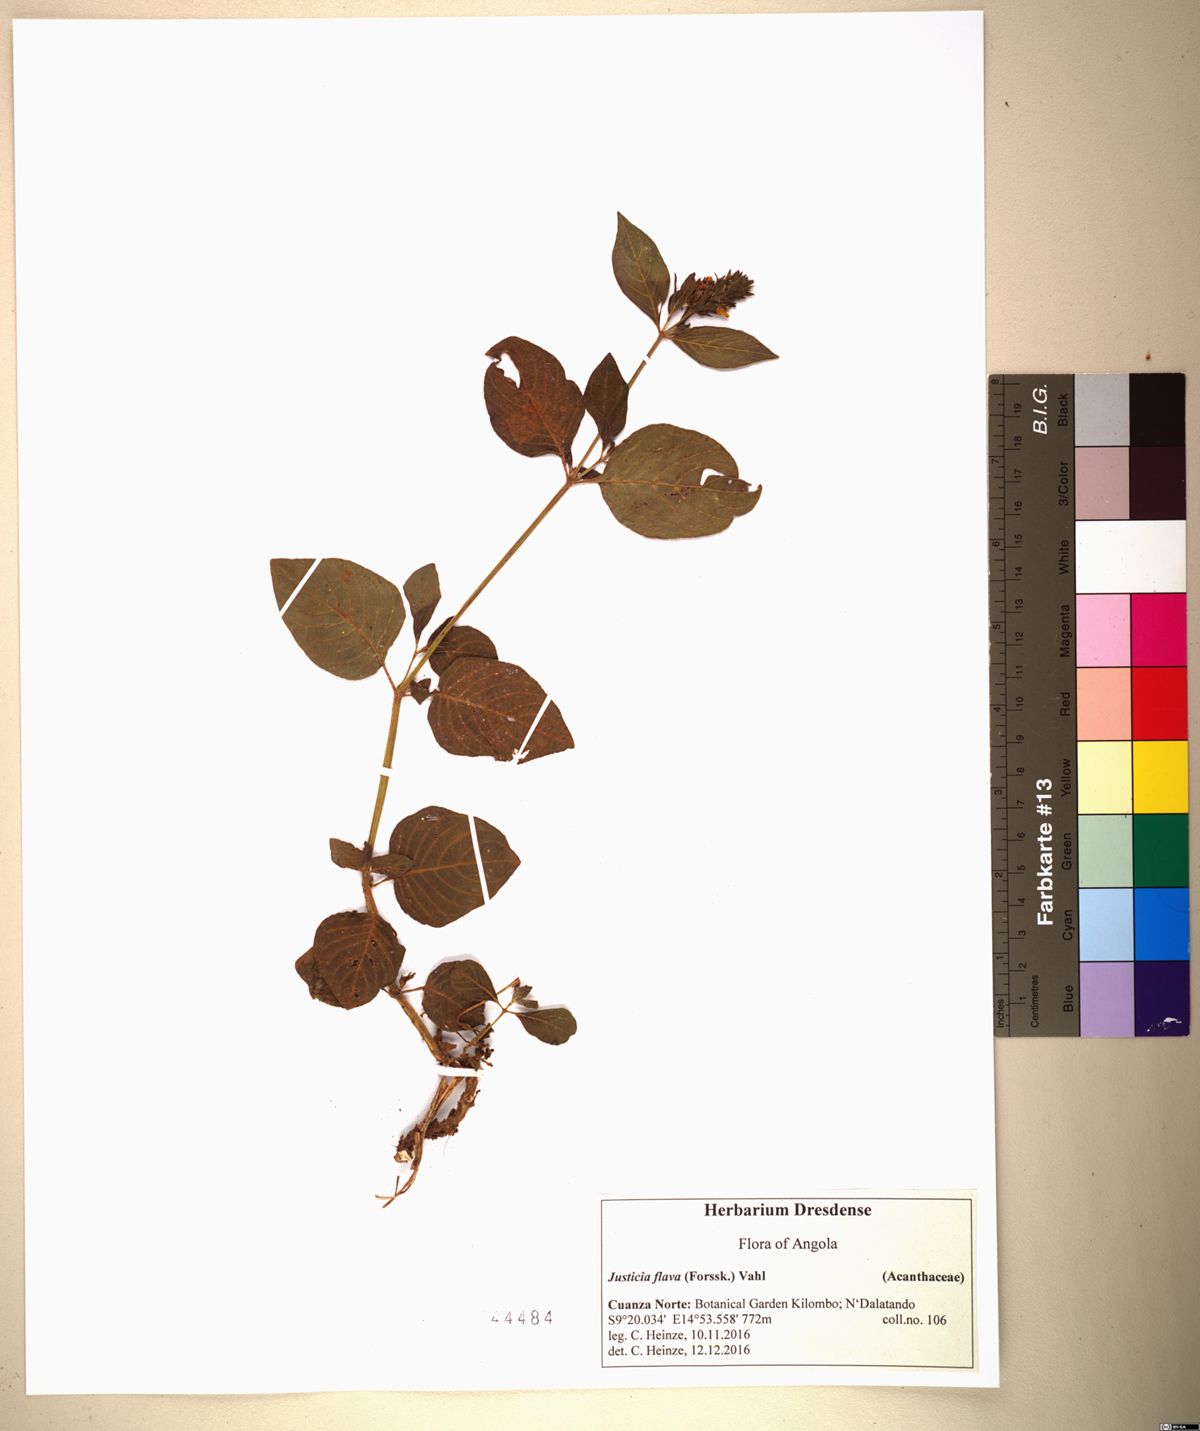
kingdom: Plantae
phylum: Tracheophyta
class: Magnoliopsida
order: Lamiales
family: Acanthaceae
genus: Justicia
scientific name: Justicia flava
